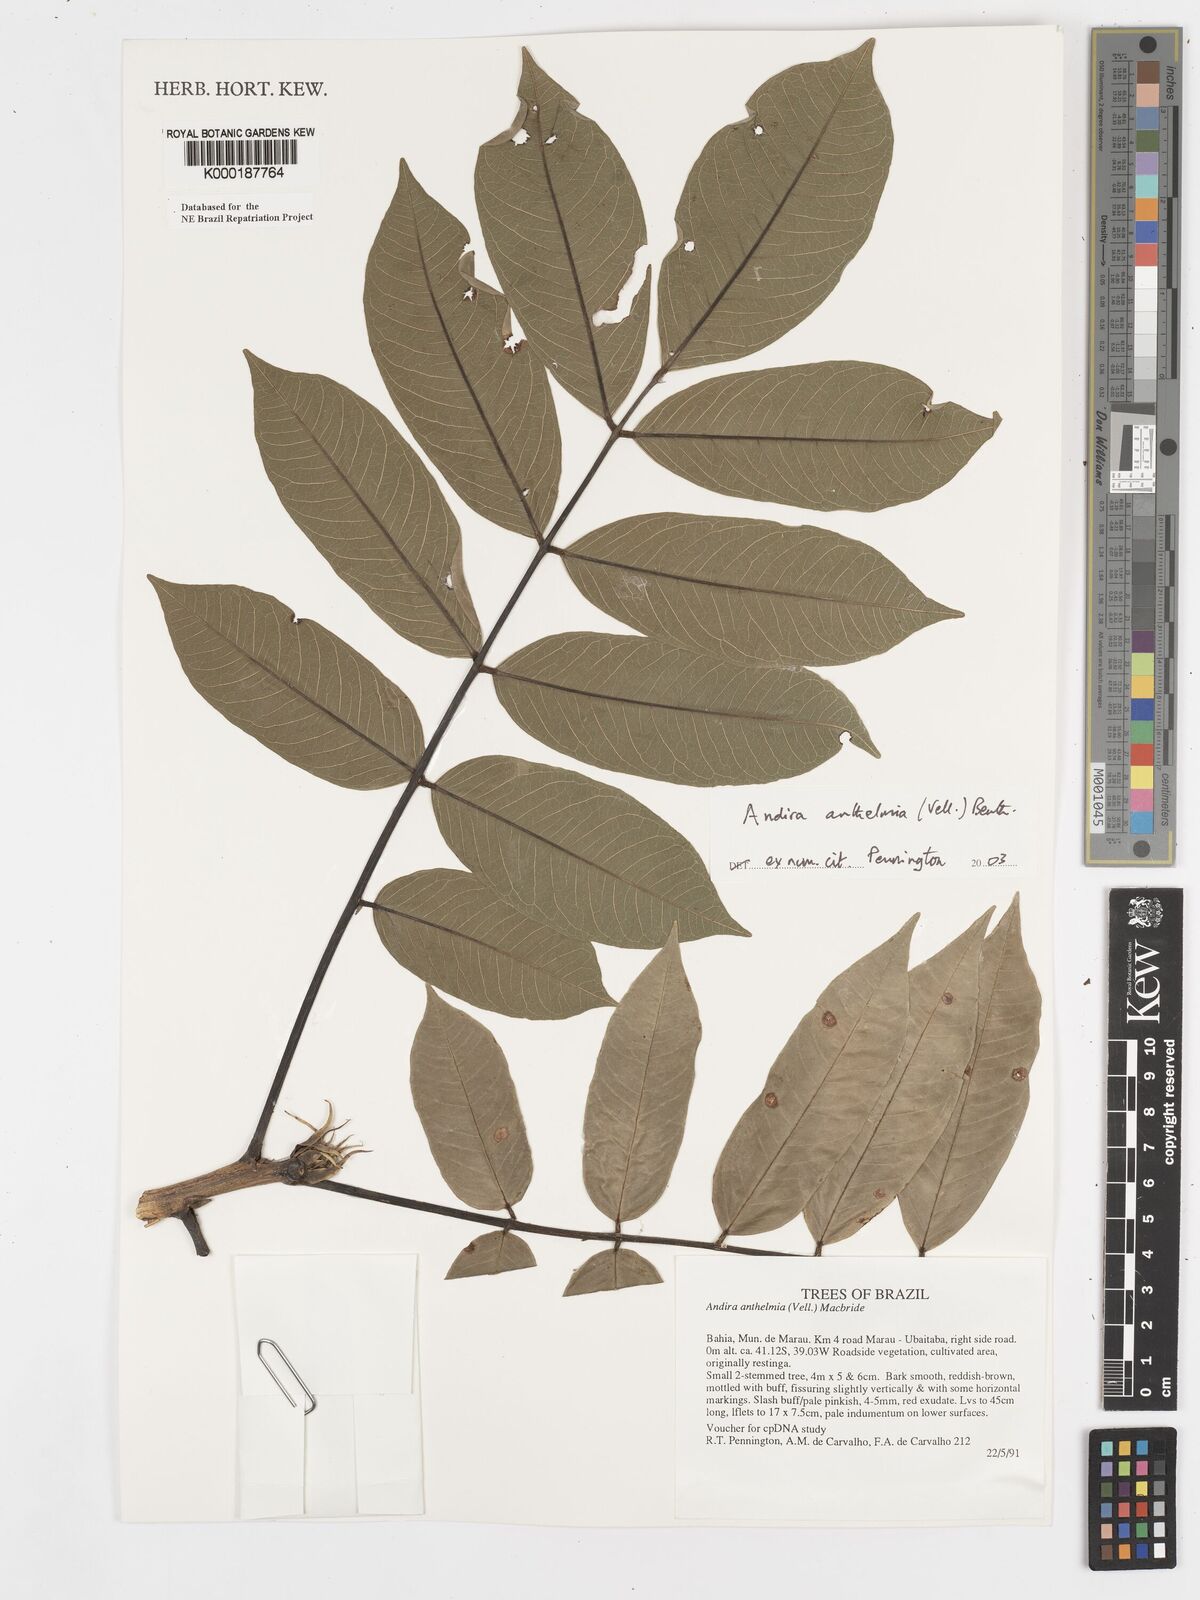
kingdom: Plantae
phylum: Tracheophyta
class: Magnoliopsida
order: Fabales
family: Fabaceae
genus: Andira
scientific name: Andira
